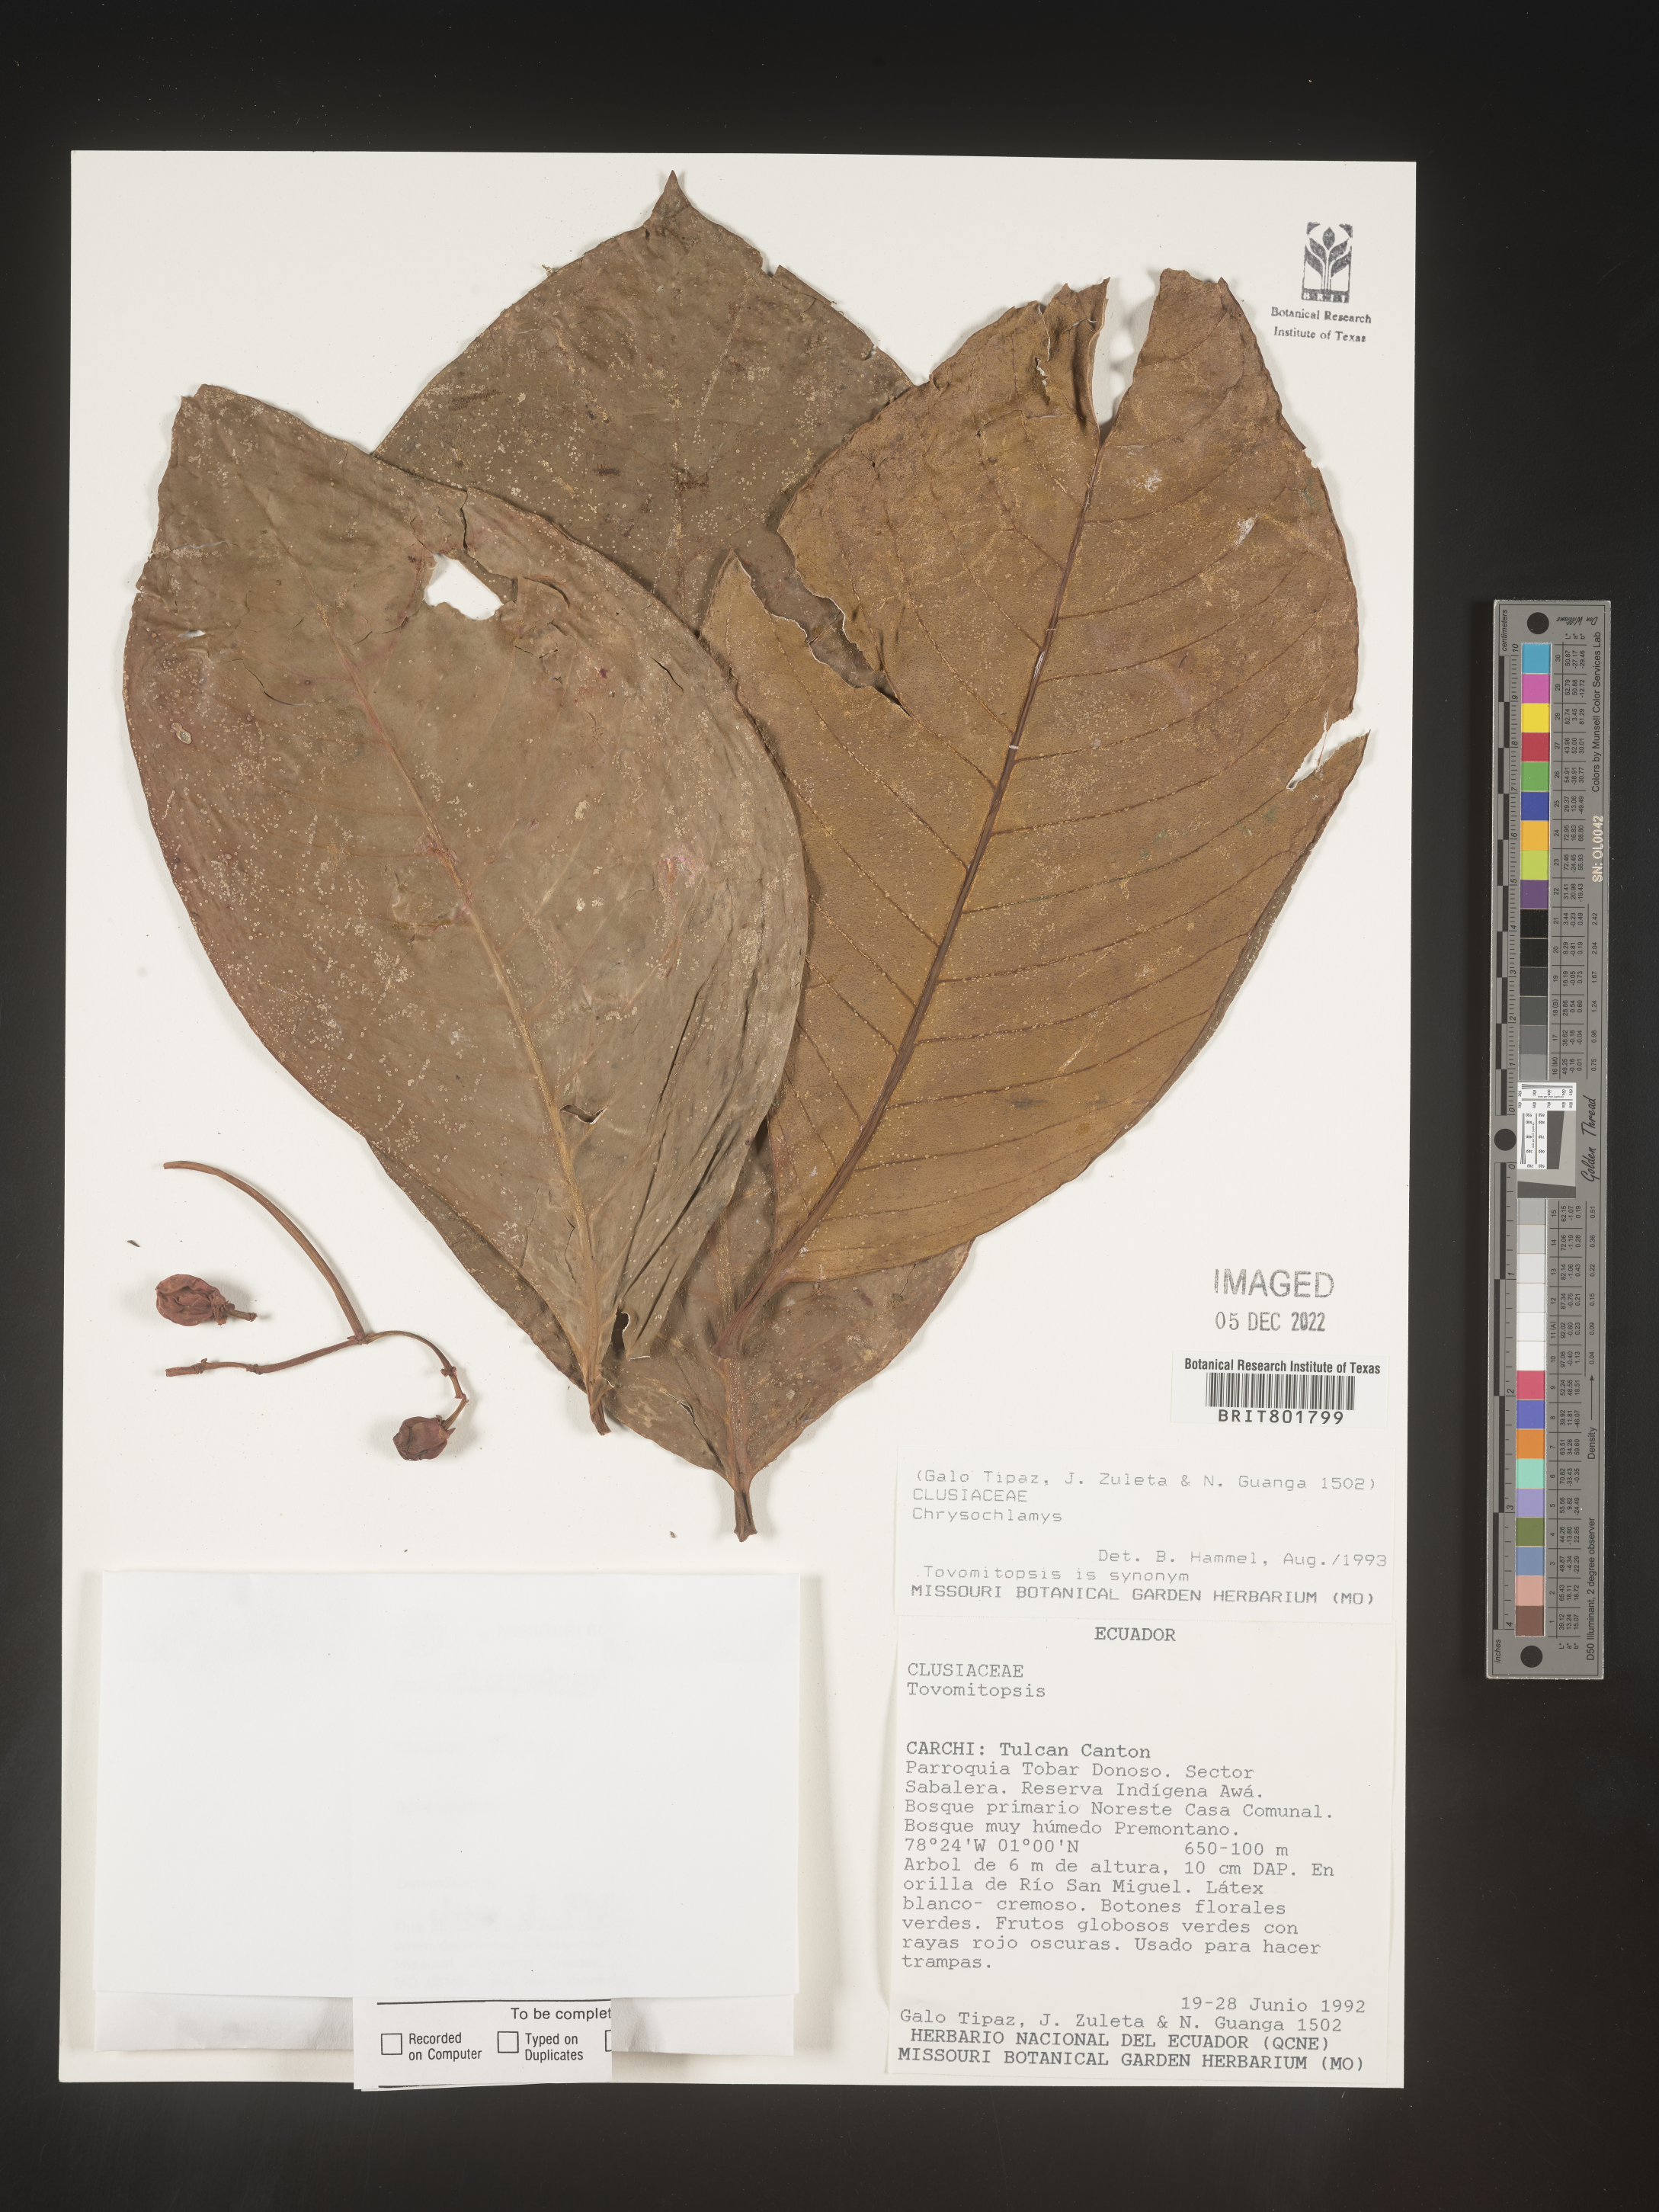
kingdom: Plantae
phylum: Tracheophyta
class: Magnoliopsida
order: Malpighiales
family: Clusiaceae
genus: Chrysochlamys
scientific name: Chrysochlamys
